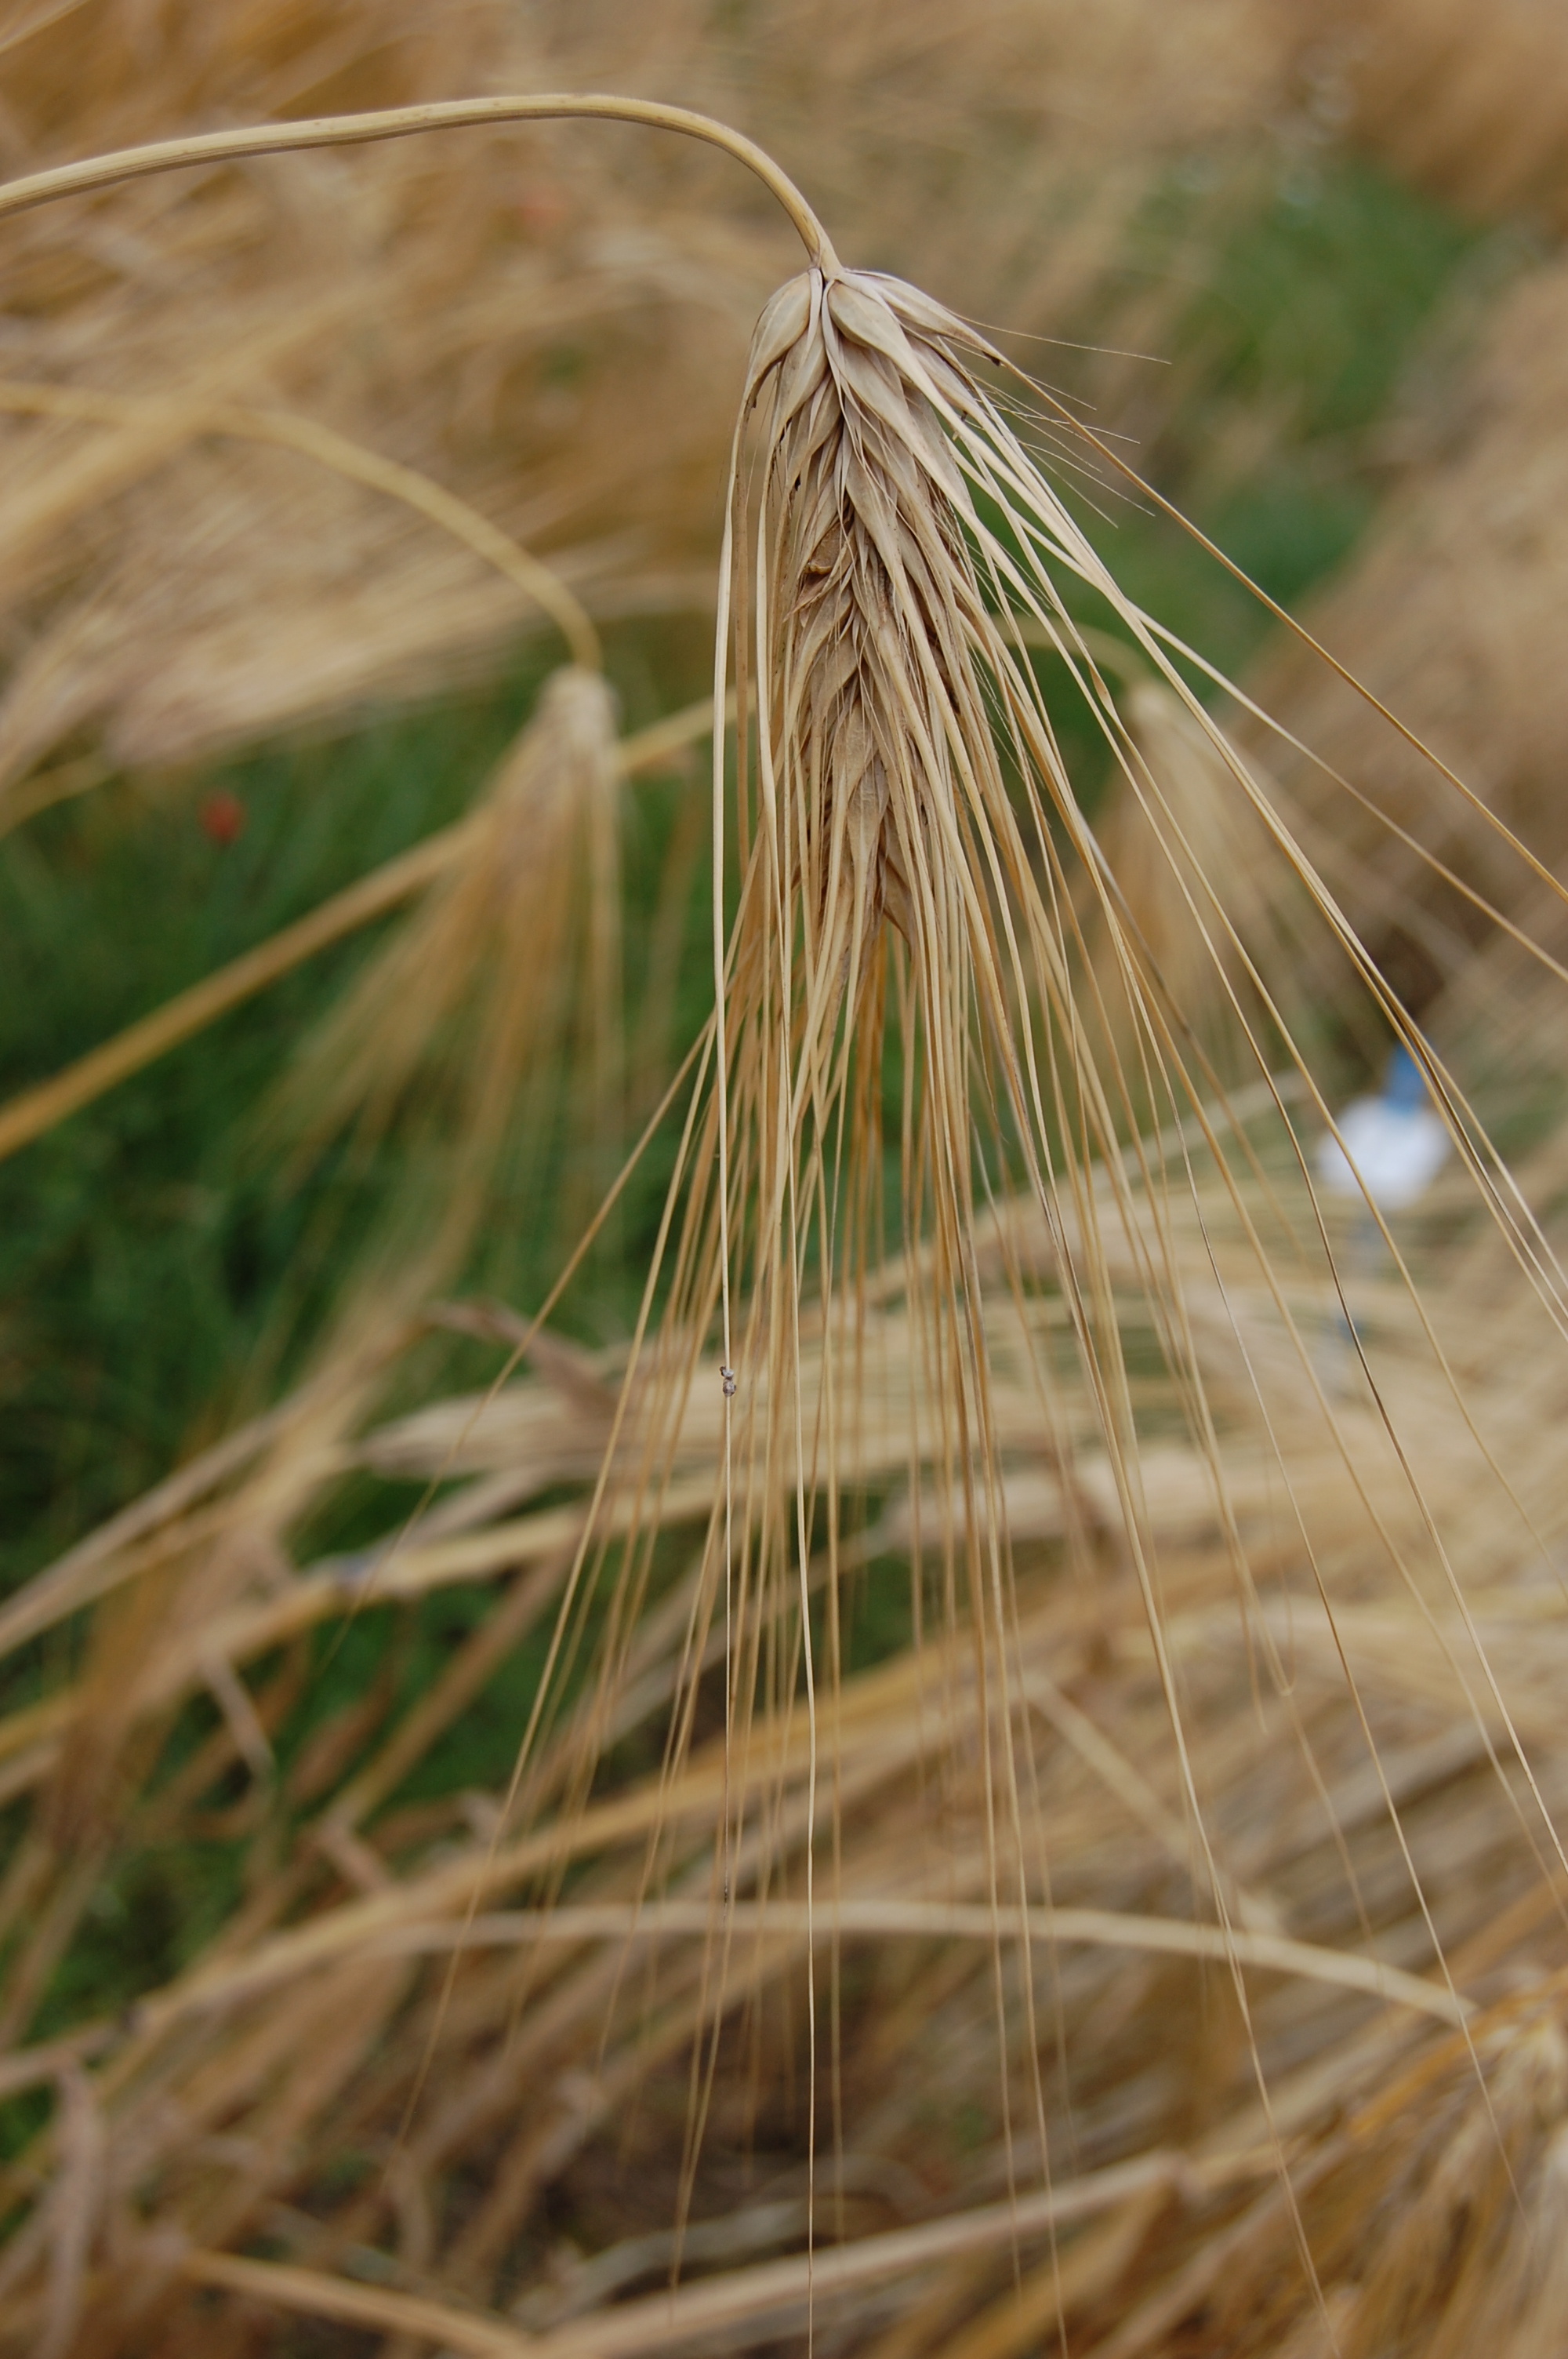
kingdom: Plantae
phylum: Tracheophyta
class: Liliopsida
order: Poales
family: Poaceae
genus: Hordeum
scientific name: Hordeum vulgare
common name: Common barley
